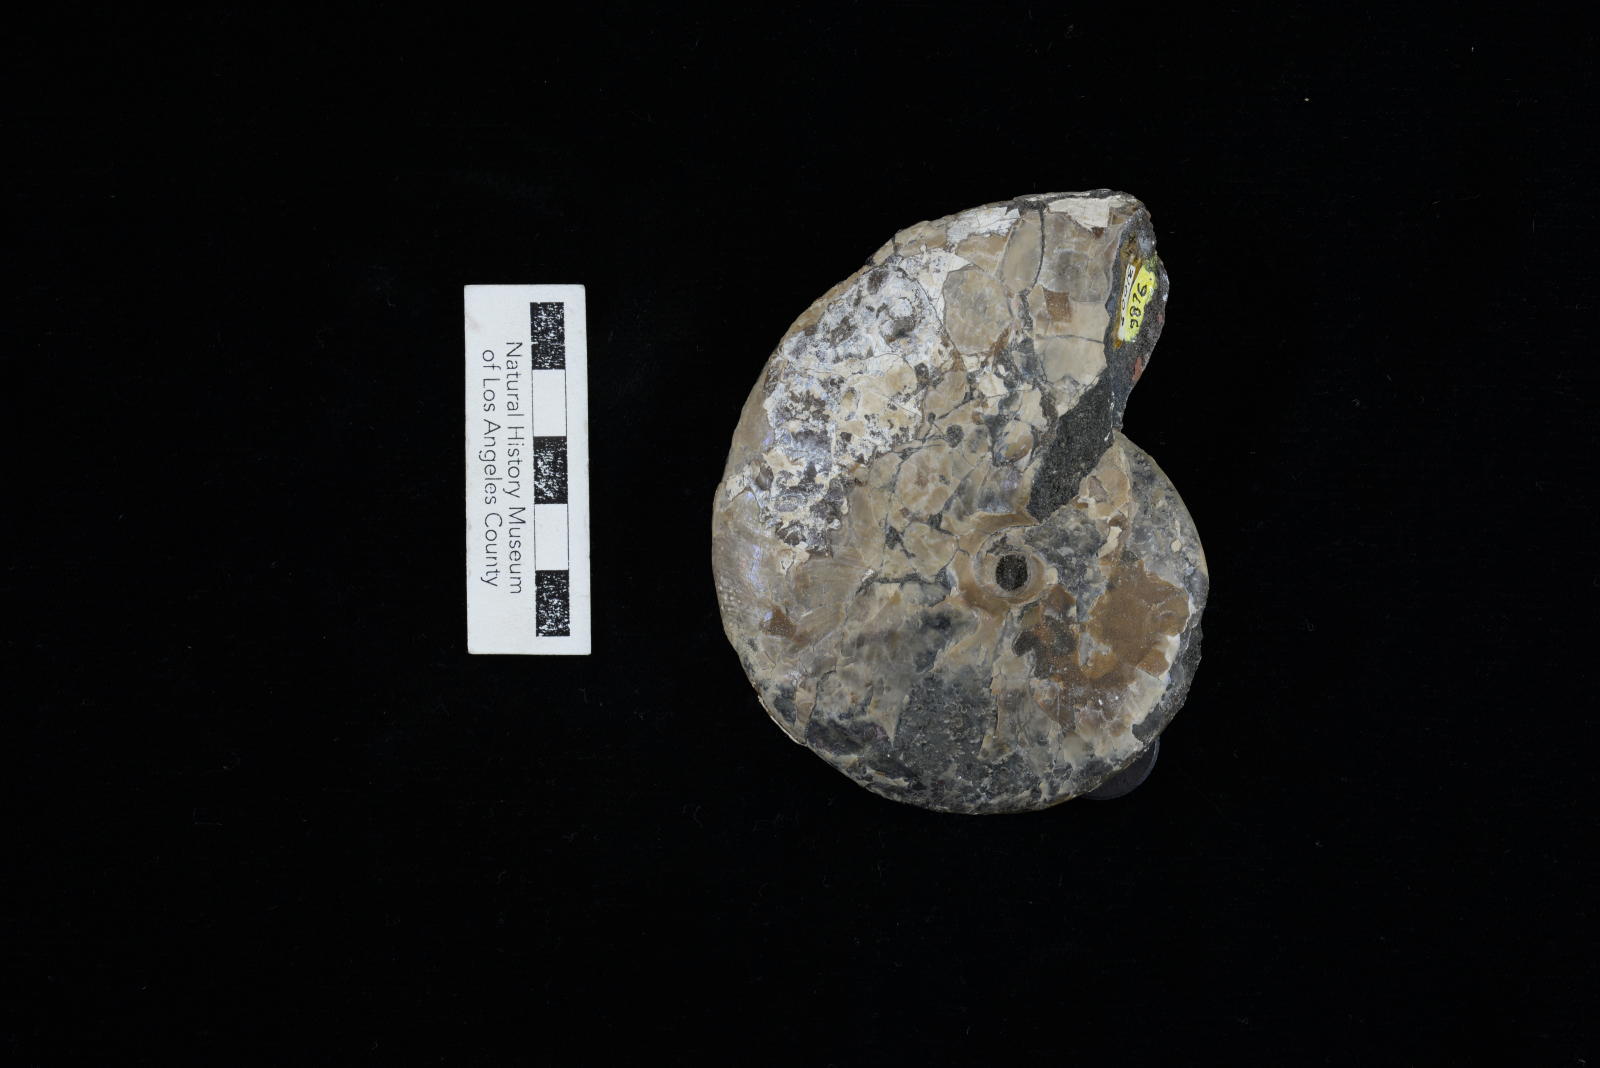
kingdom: Animalia
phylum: Mollusca
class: Cephalopoda
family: Hoplitidae
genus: Cleoniceras
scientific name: Cleoniceras
